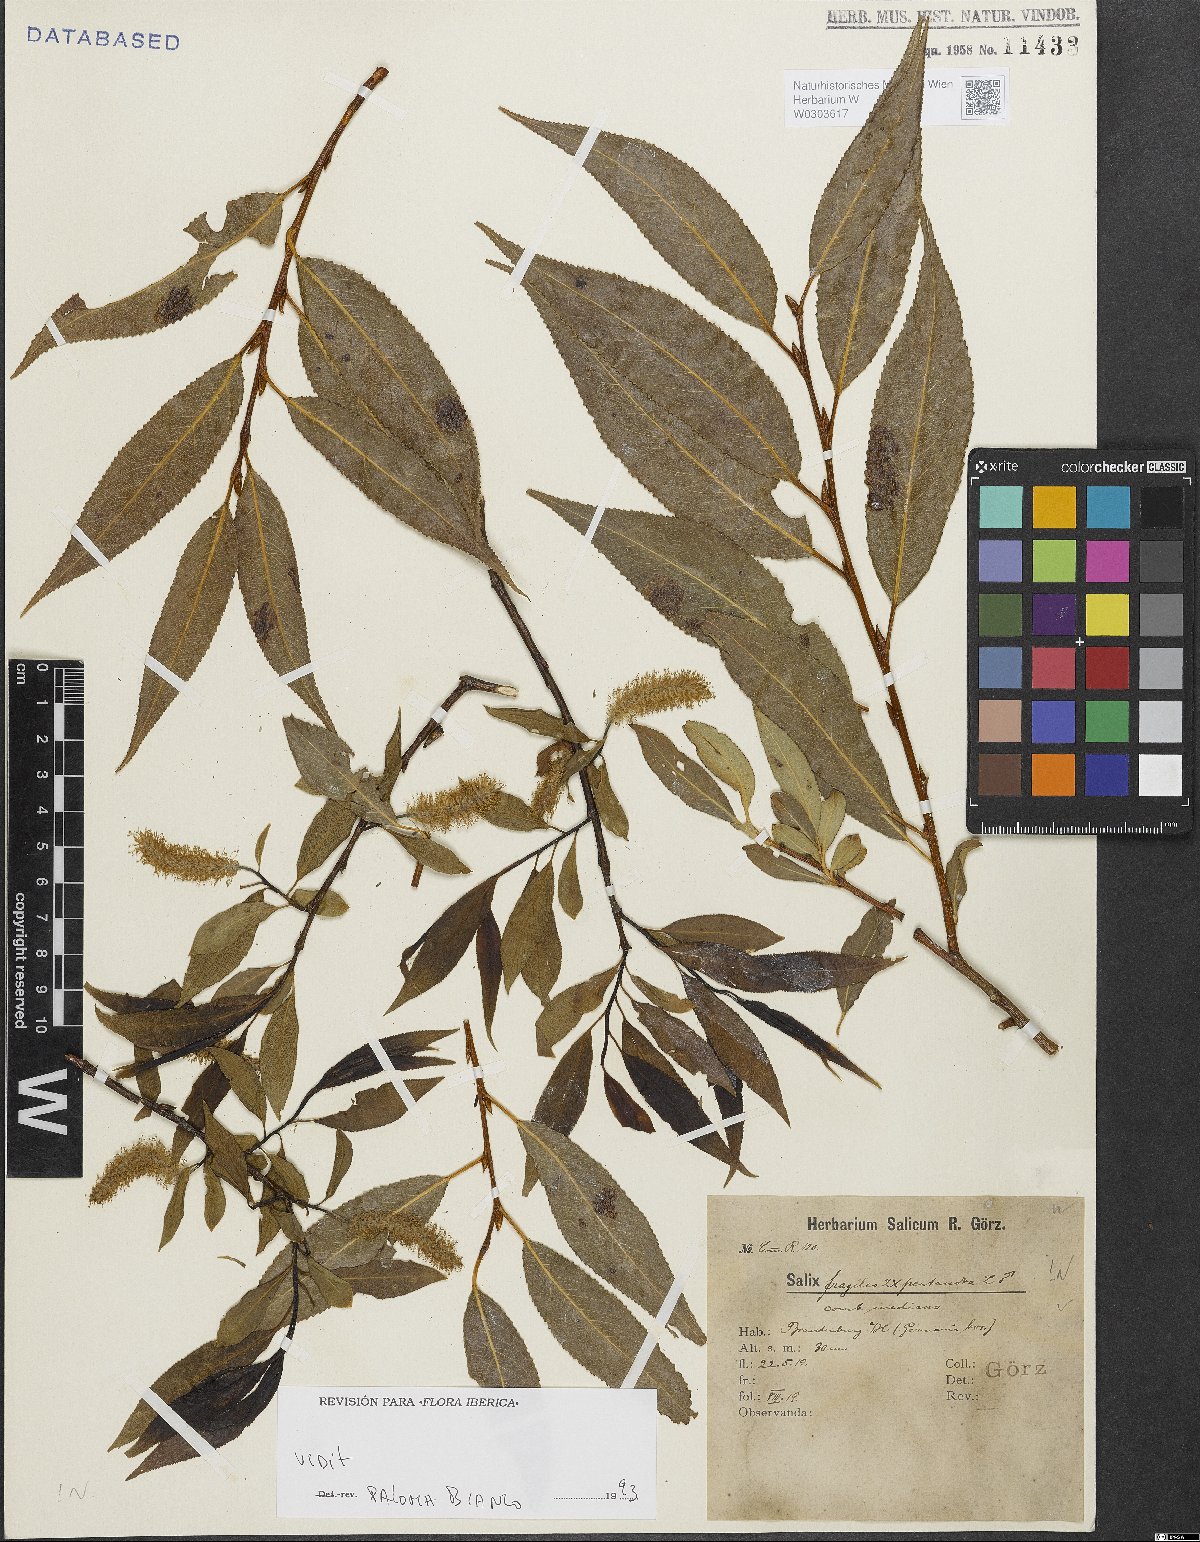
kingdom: Plantae
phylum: Tracheophyta
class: Magnoliopsida
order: Malpighiales
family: Salicaceae
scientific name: Salicaceae
